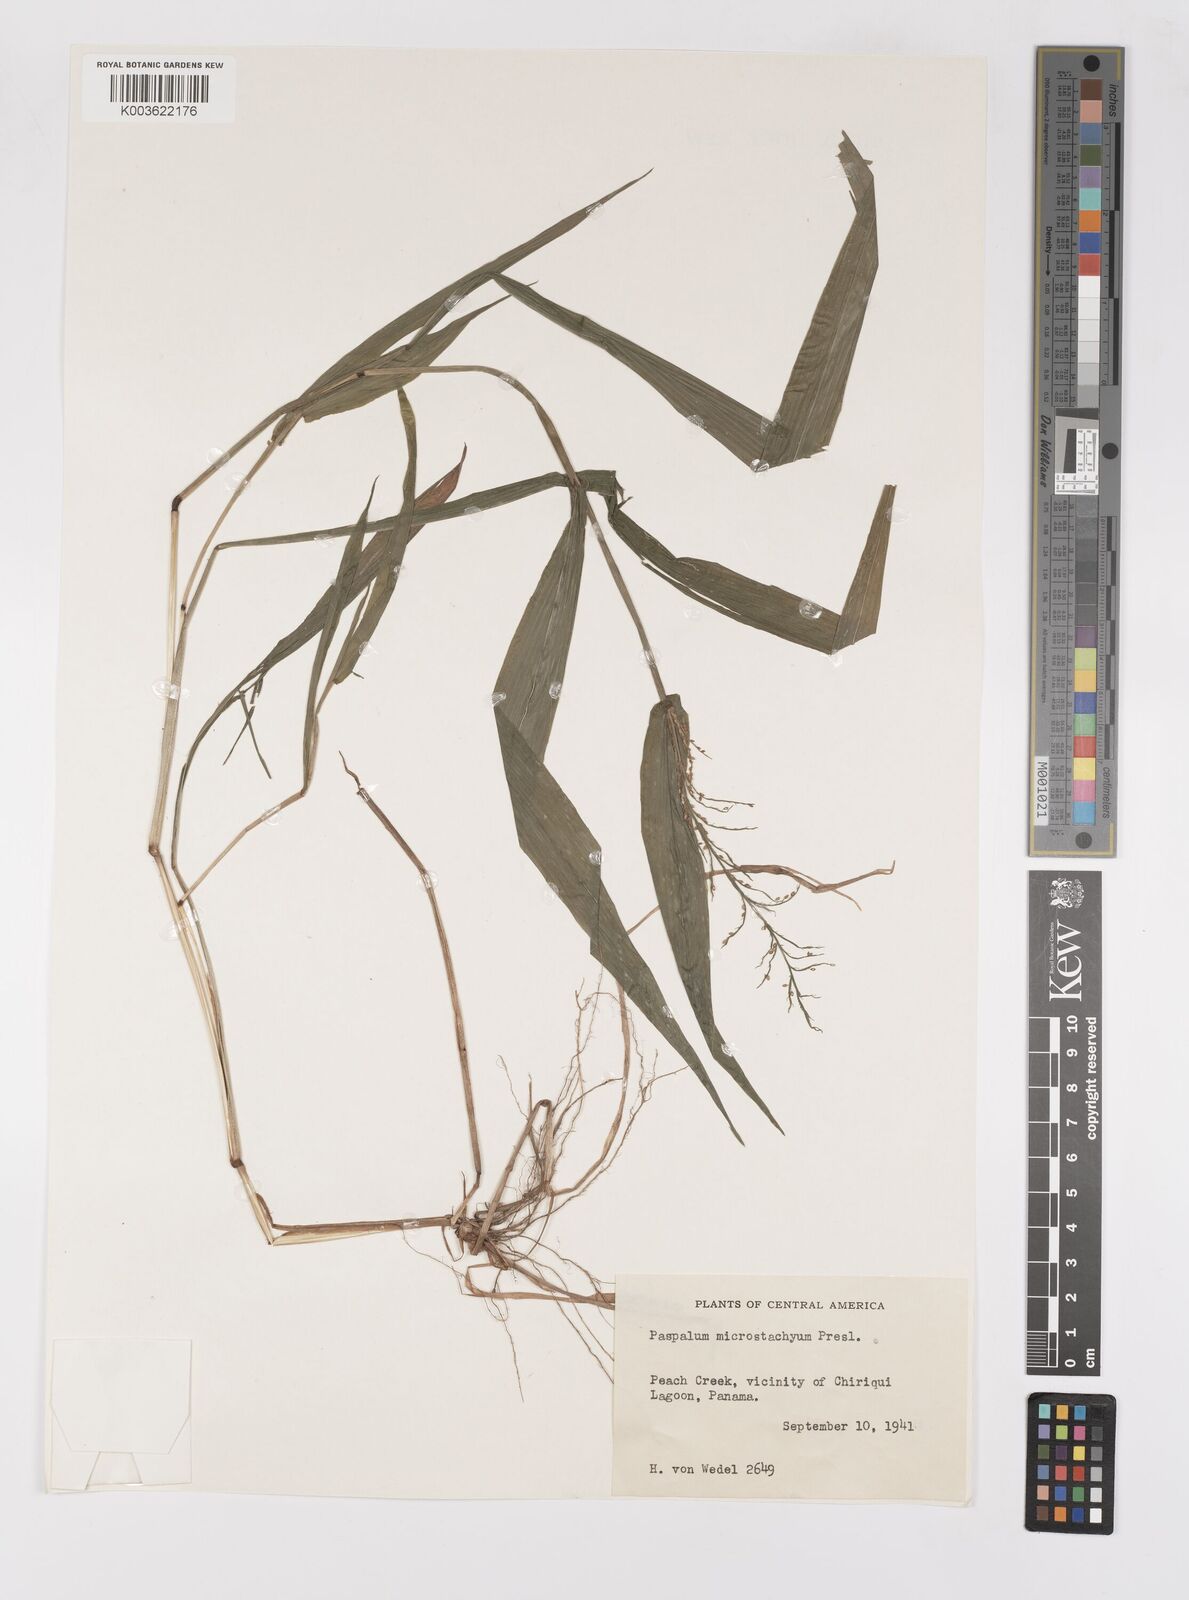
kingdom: Plantae
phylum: Tracheophyta
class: Liliopsida
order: Poales
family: Poaceae
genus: Paspalum
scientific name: Paspalum microstachyum
